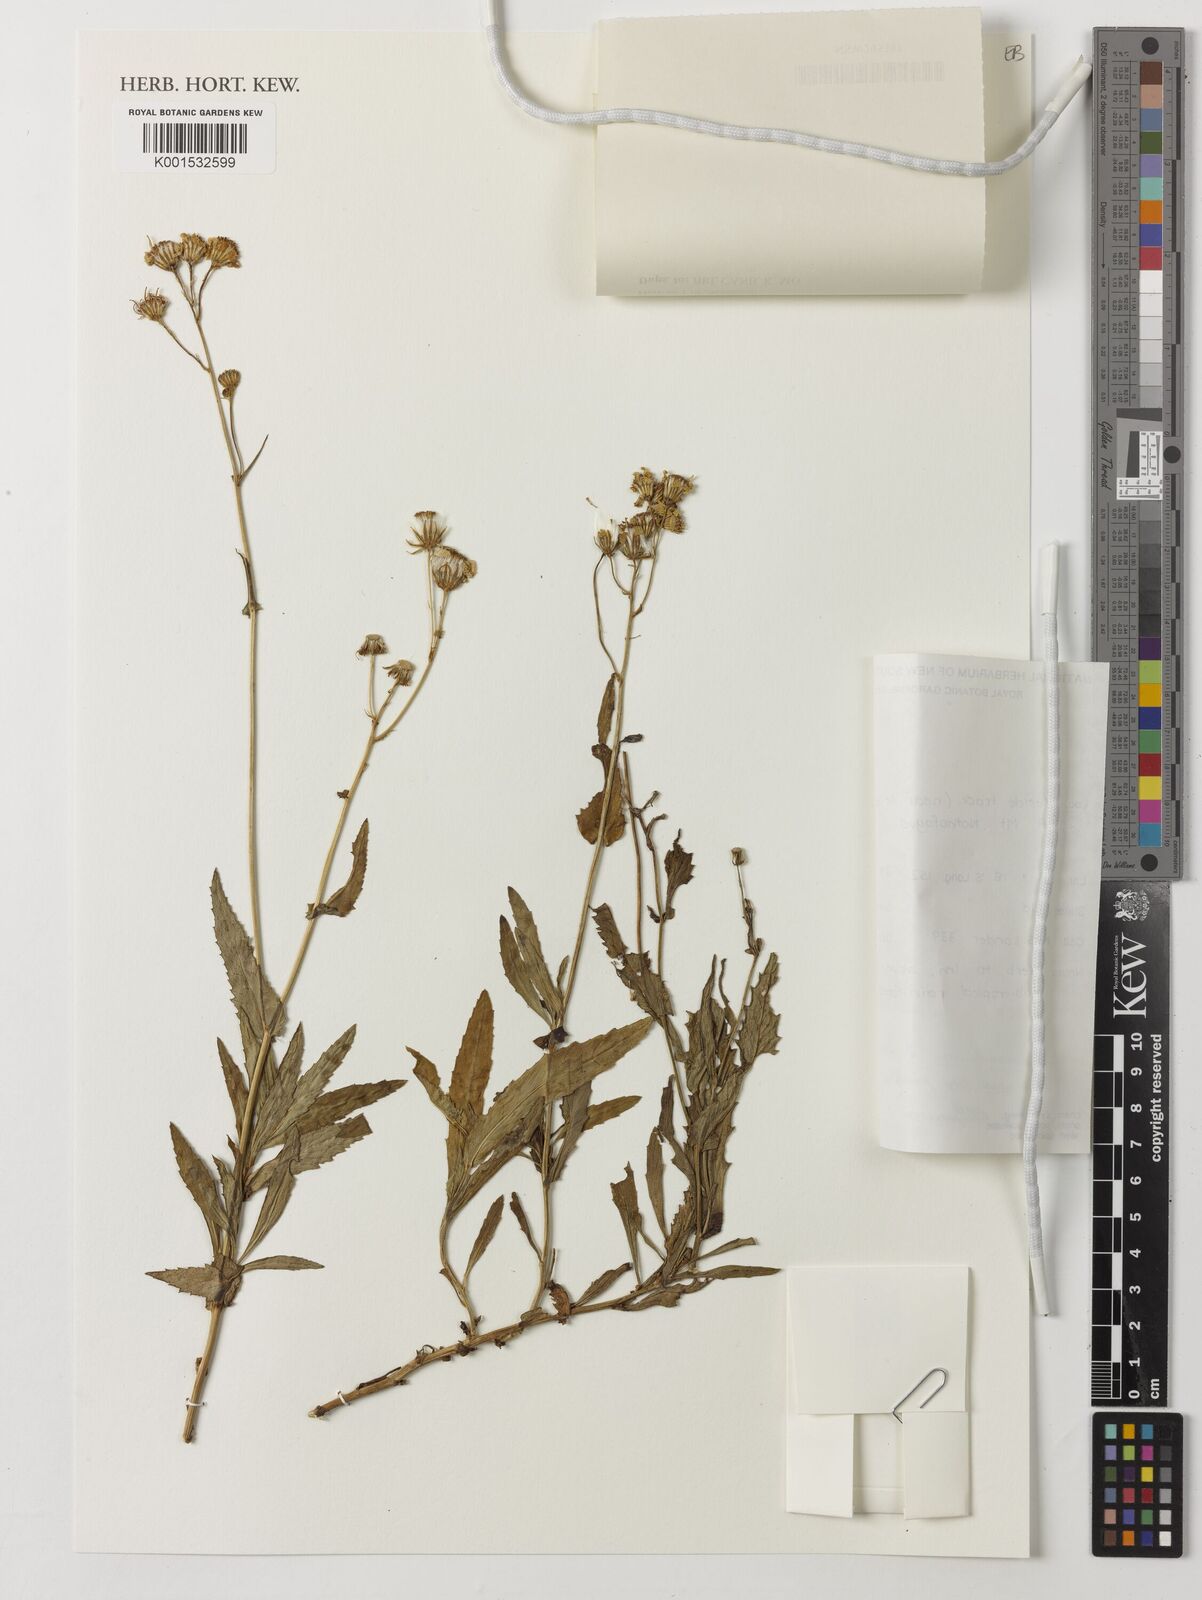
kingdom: Plantae
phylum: Tracheophyta
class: Magnoliopsida
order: Asterales
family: Asteraceae
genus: Senecio
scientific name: Senecio sphaerocephalus
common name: Mountain-marsh butterweed
